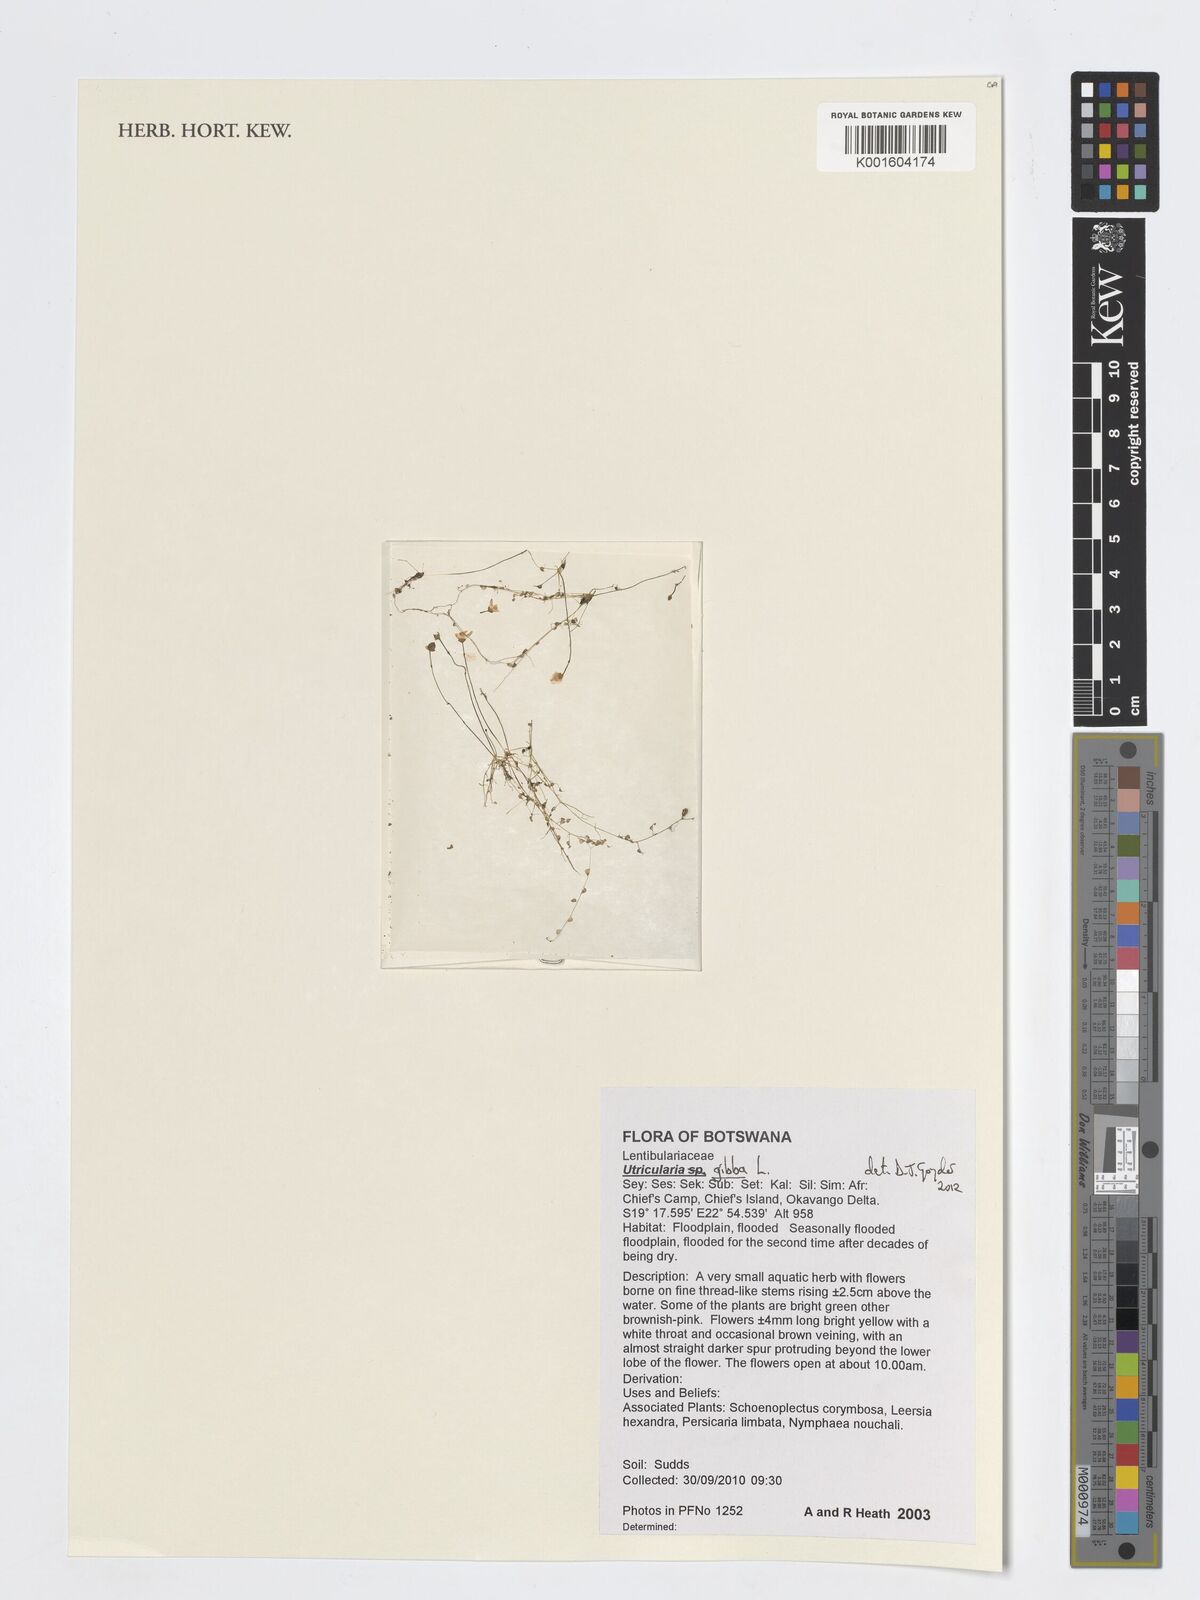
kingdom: Plantae
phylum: Tracheophyta
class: Magnoliopsida
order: Lamiales
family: Lentibulariaceae
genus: Utricularia
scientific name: Utricularia gibba
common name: Humped bladderwort
